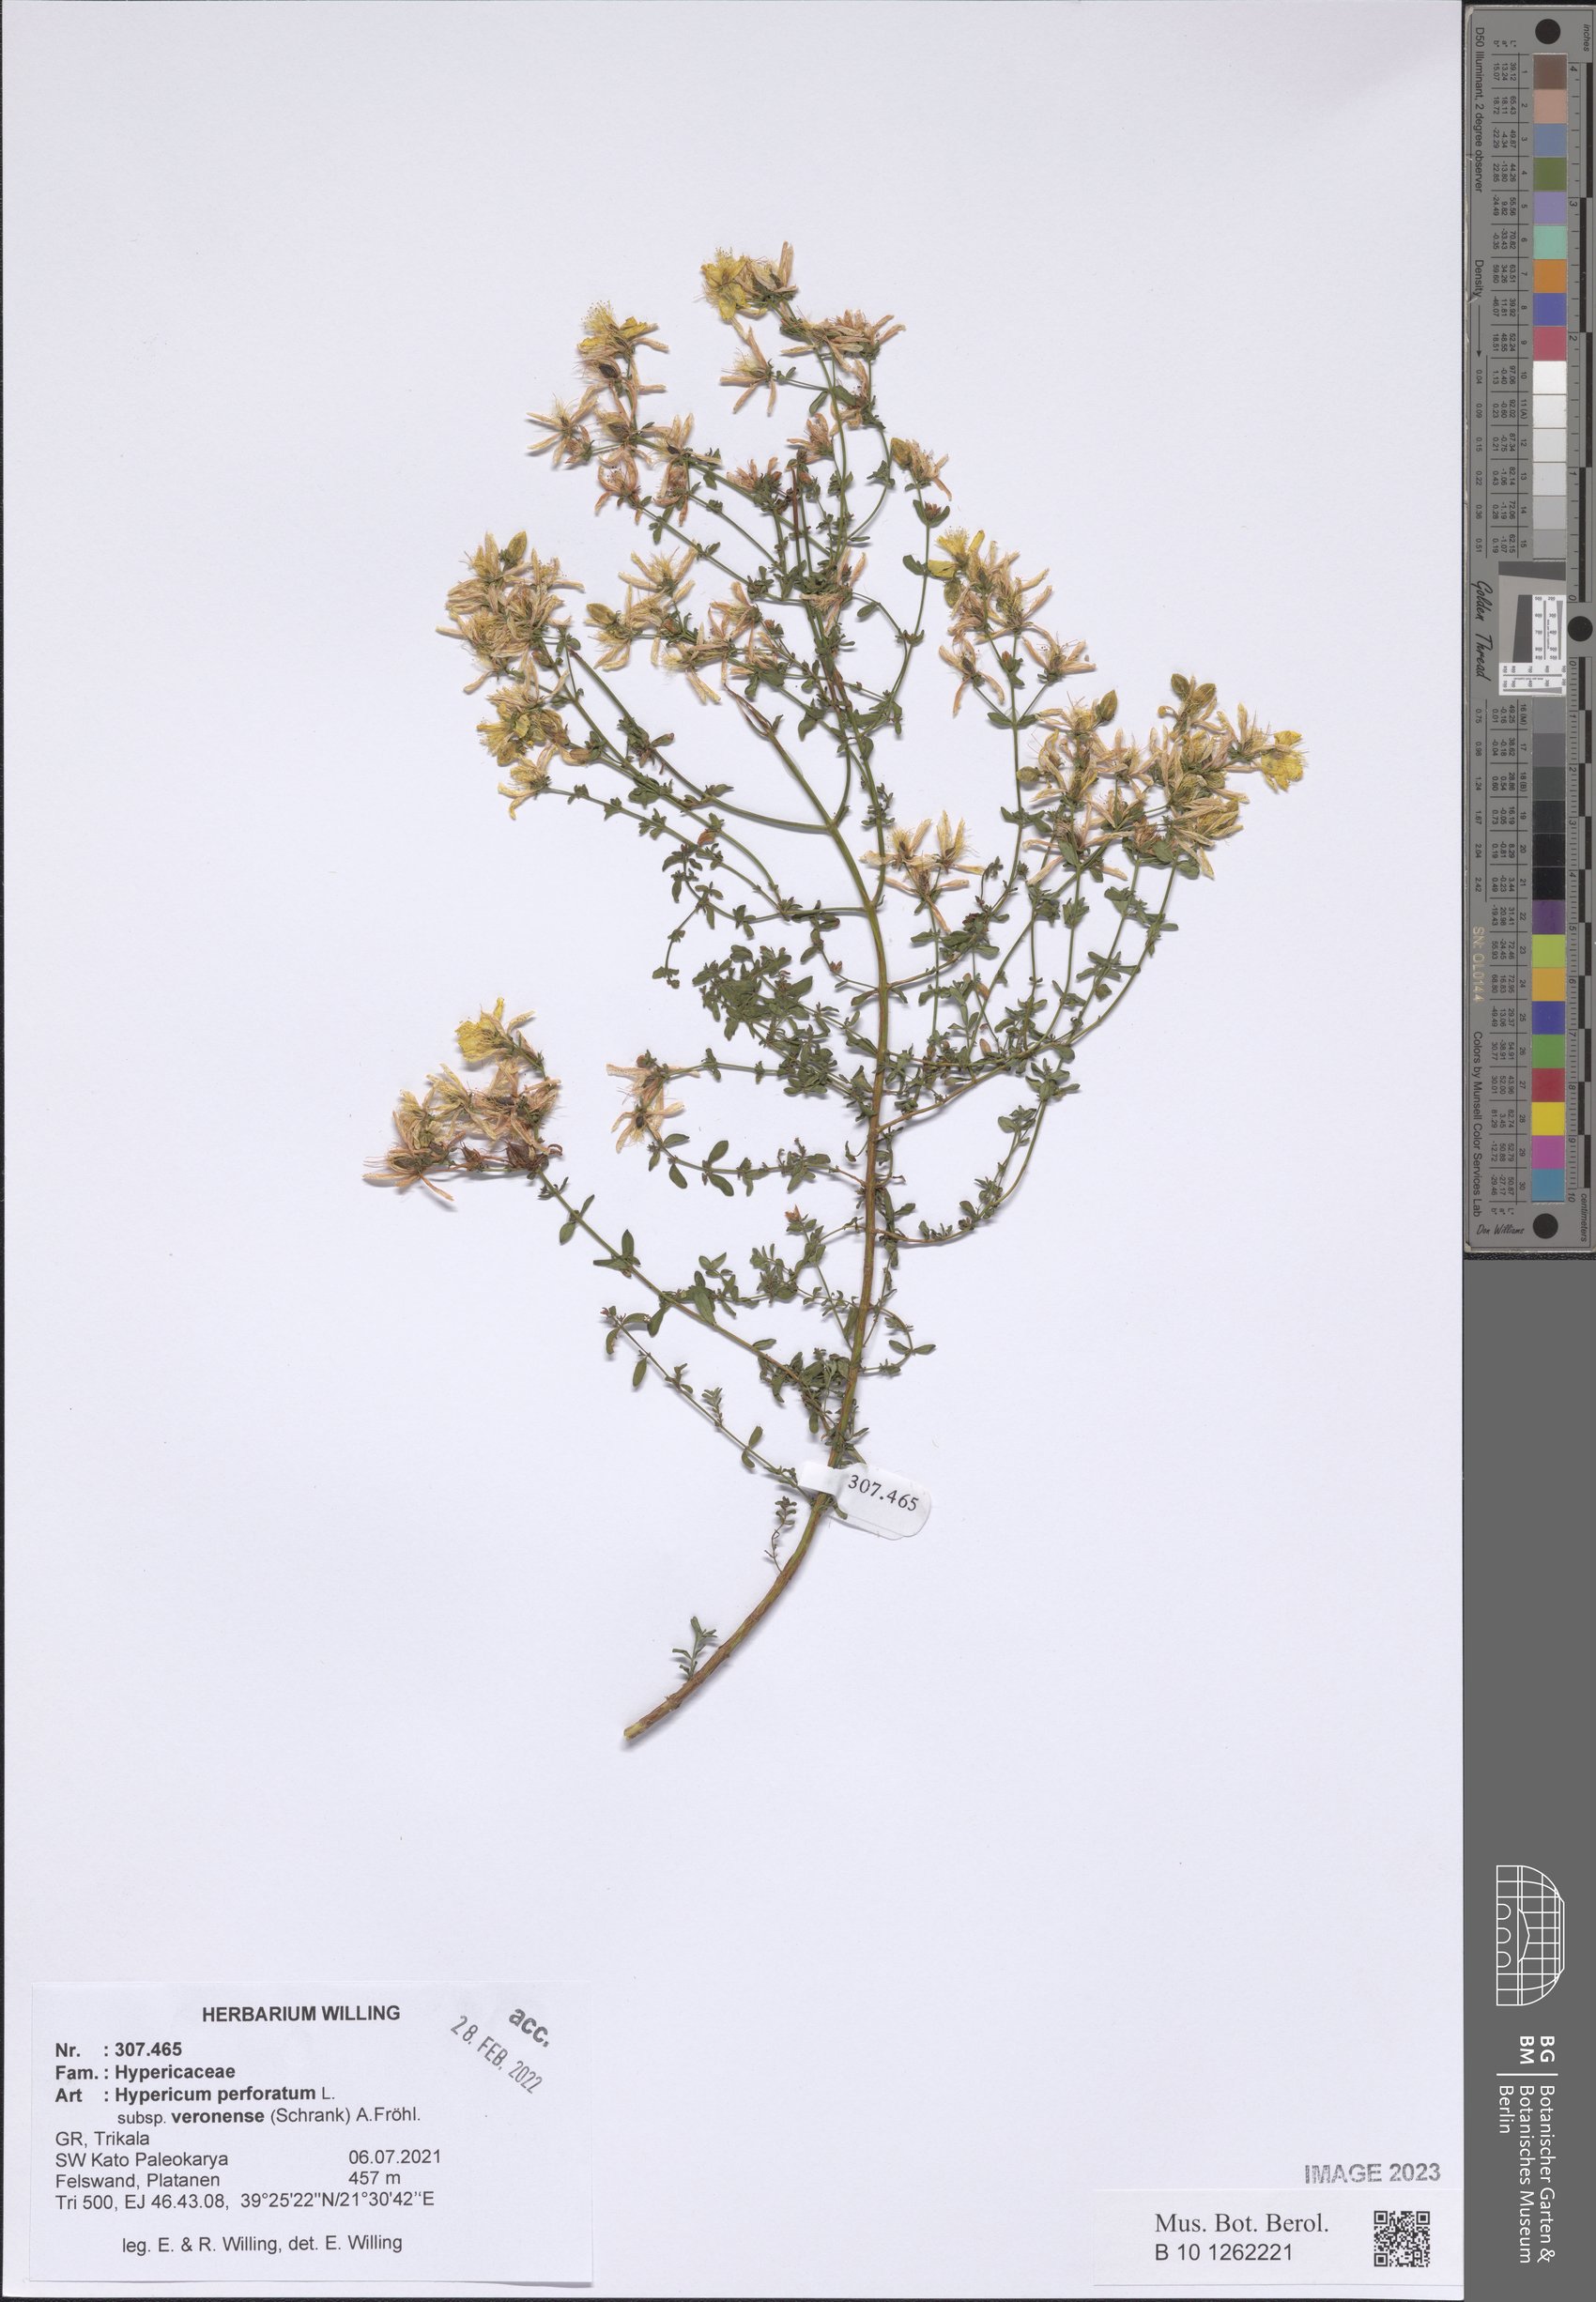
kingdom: Plantae
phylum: Tracheophyta
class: Magnoliopsida
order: Malpighiales
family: Hypericaceae
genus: Hypericum
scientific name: Hypericum veronense
